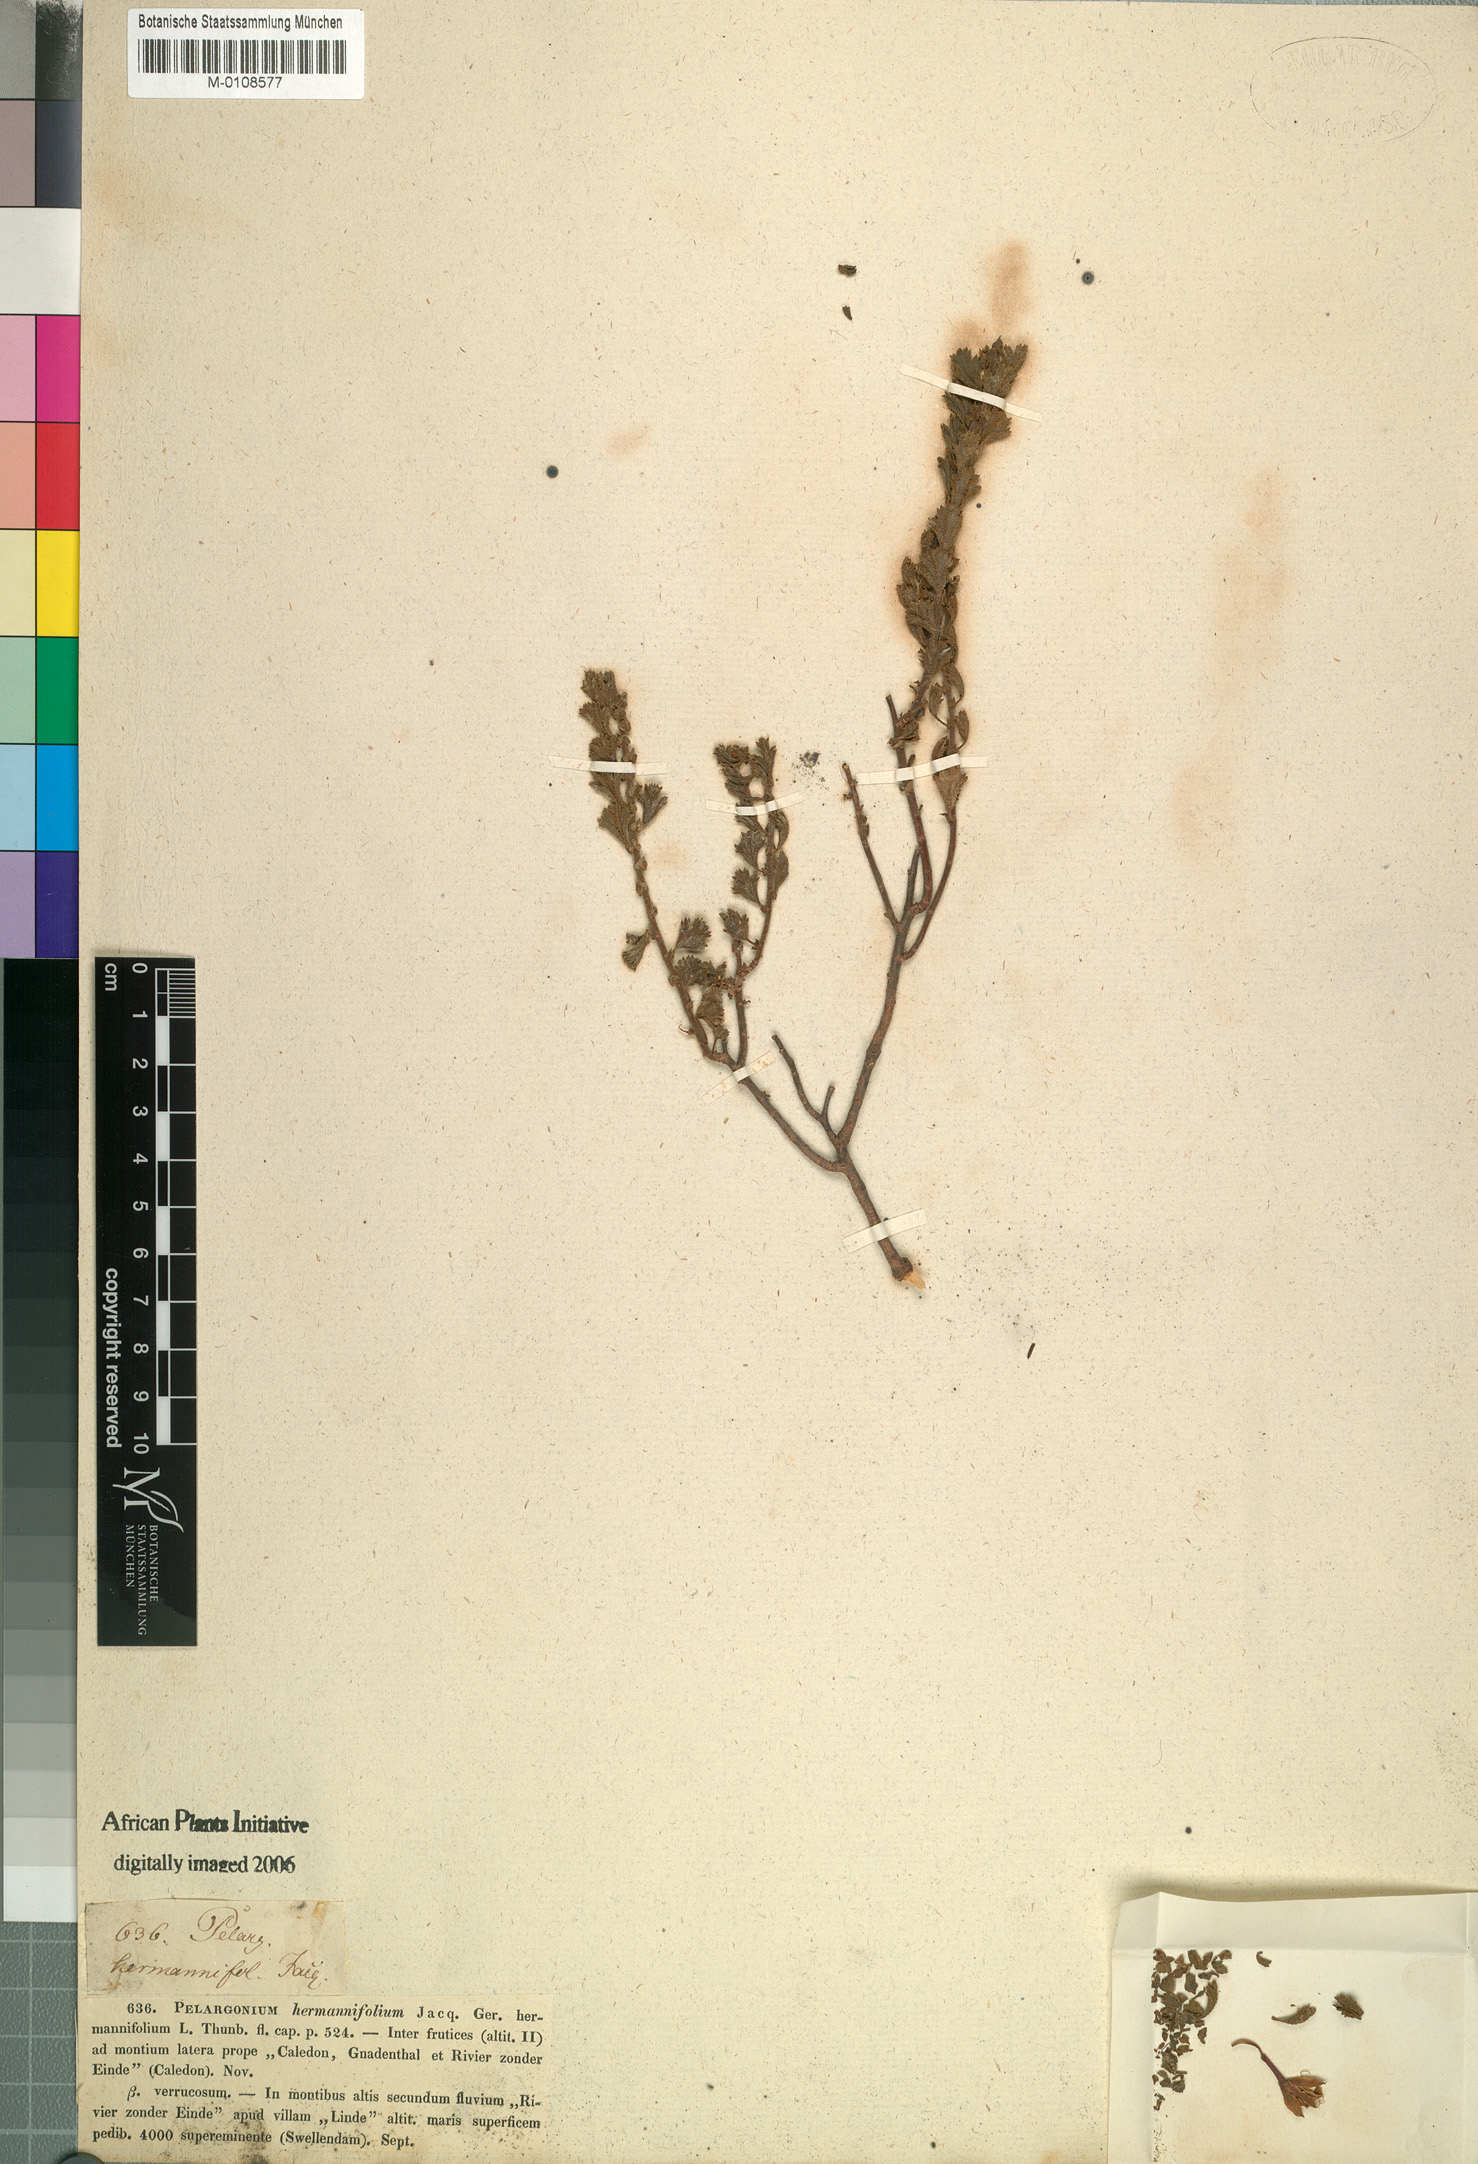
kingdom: Plantae
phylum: Tracheophyta
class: Magnoliopsida
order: Geraniales
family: Geraniaceae
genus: Pelargonium
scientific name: Pelargonium hermaniifolium
